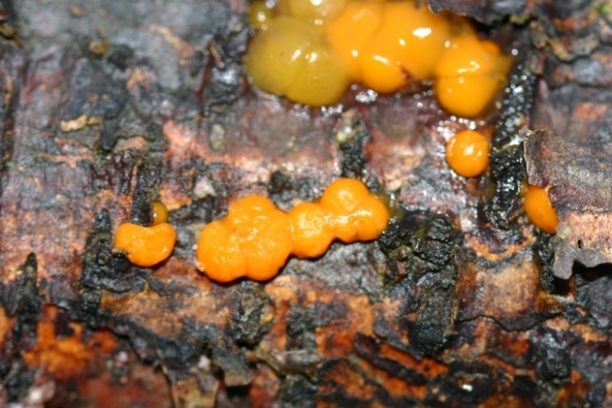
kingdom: Fungi
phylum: Basidiomycota
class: Dacrymycetes
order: Dacrymycetales
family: Dacrymycetaceae
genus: Dacrymyces
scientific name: Dacrymyces stillatus
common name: almindelig tåresvamp
